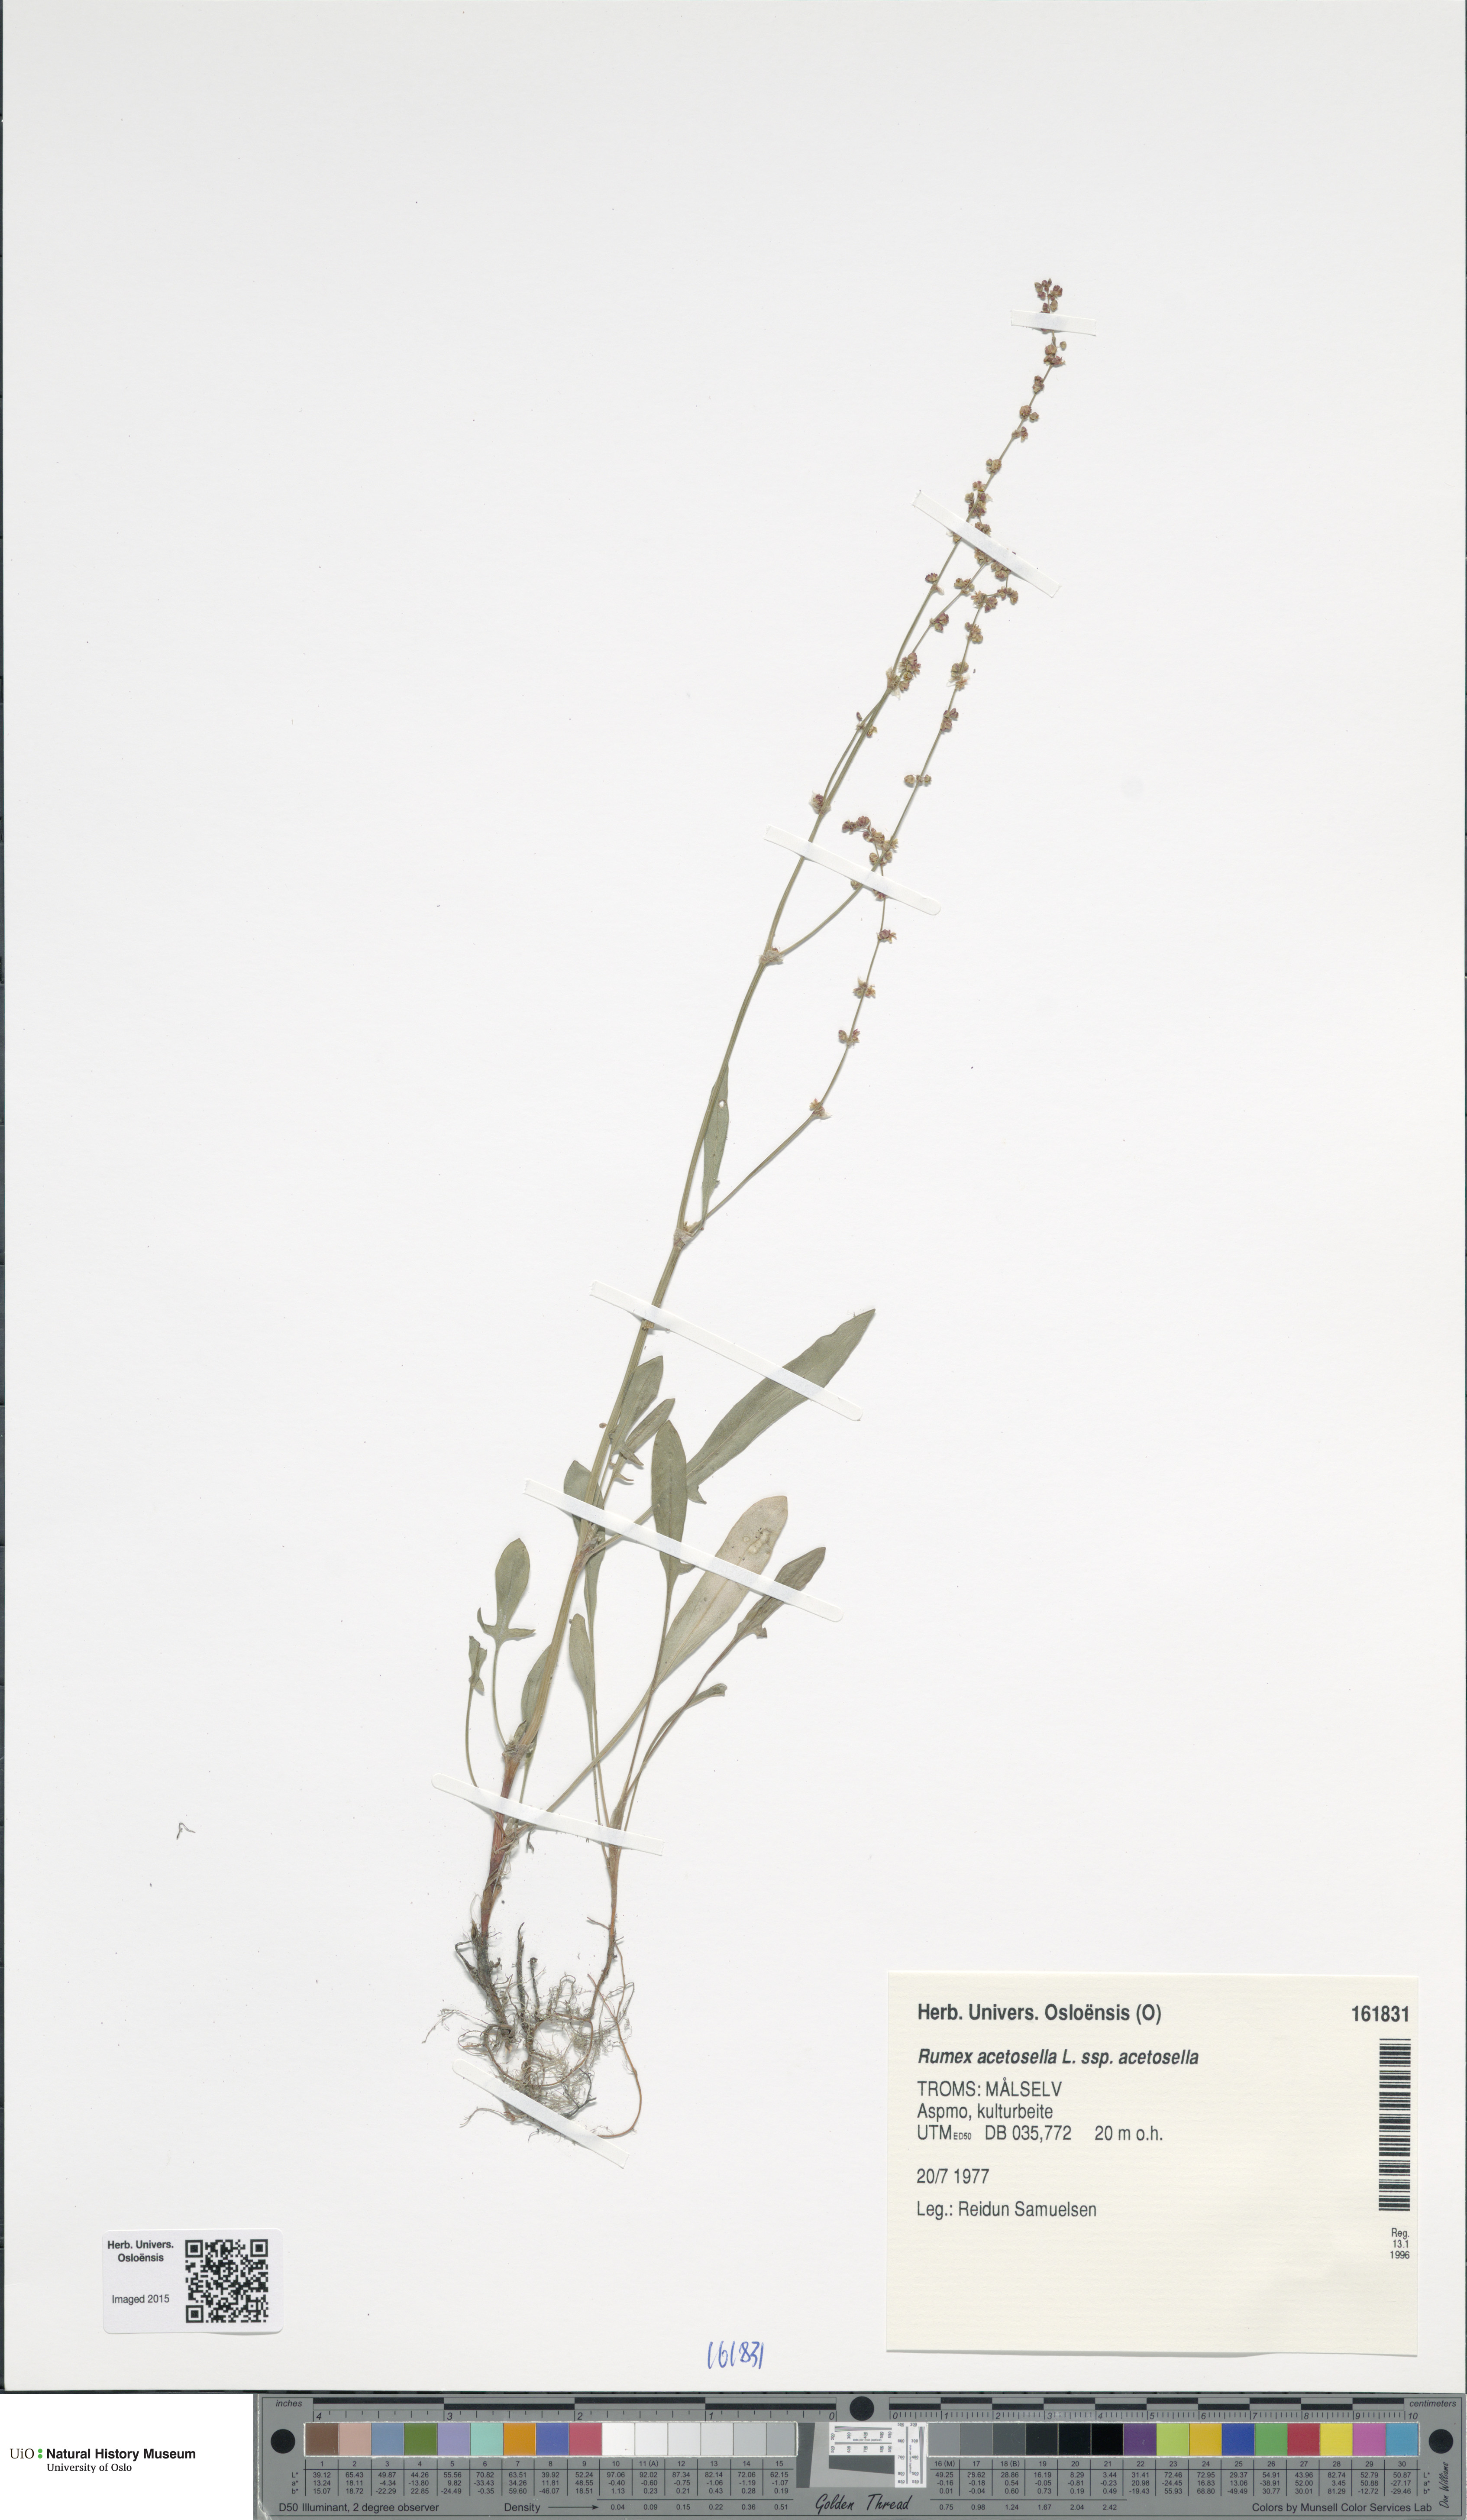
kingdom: Plantae
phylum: Tracheophyta
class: Magnoliopsida
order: Caryophyllales
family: Polygonaceae
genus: Rumex
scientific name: Rumex acetosella
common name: Common sheep sorrel
